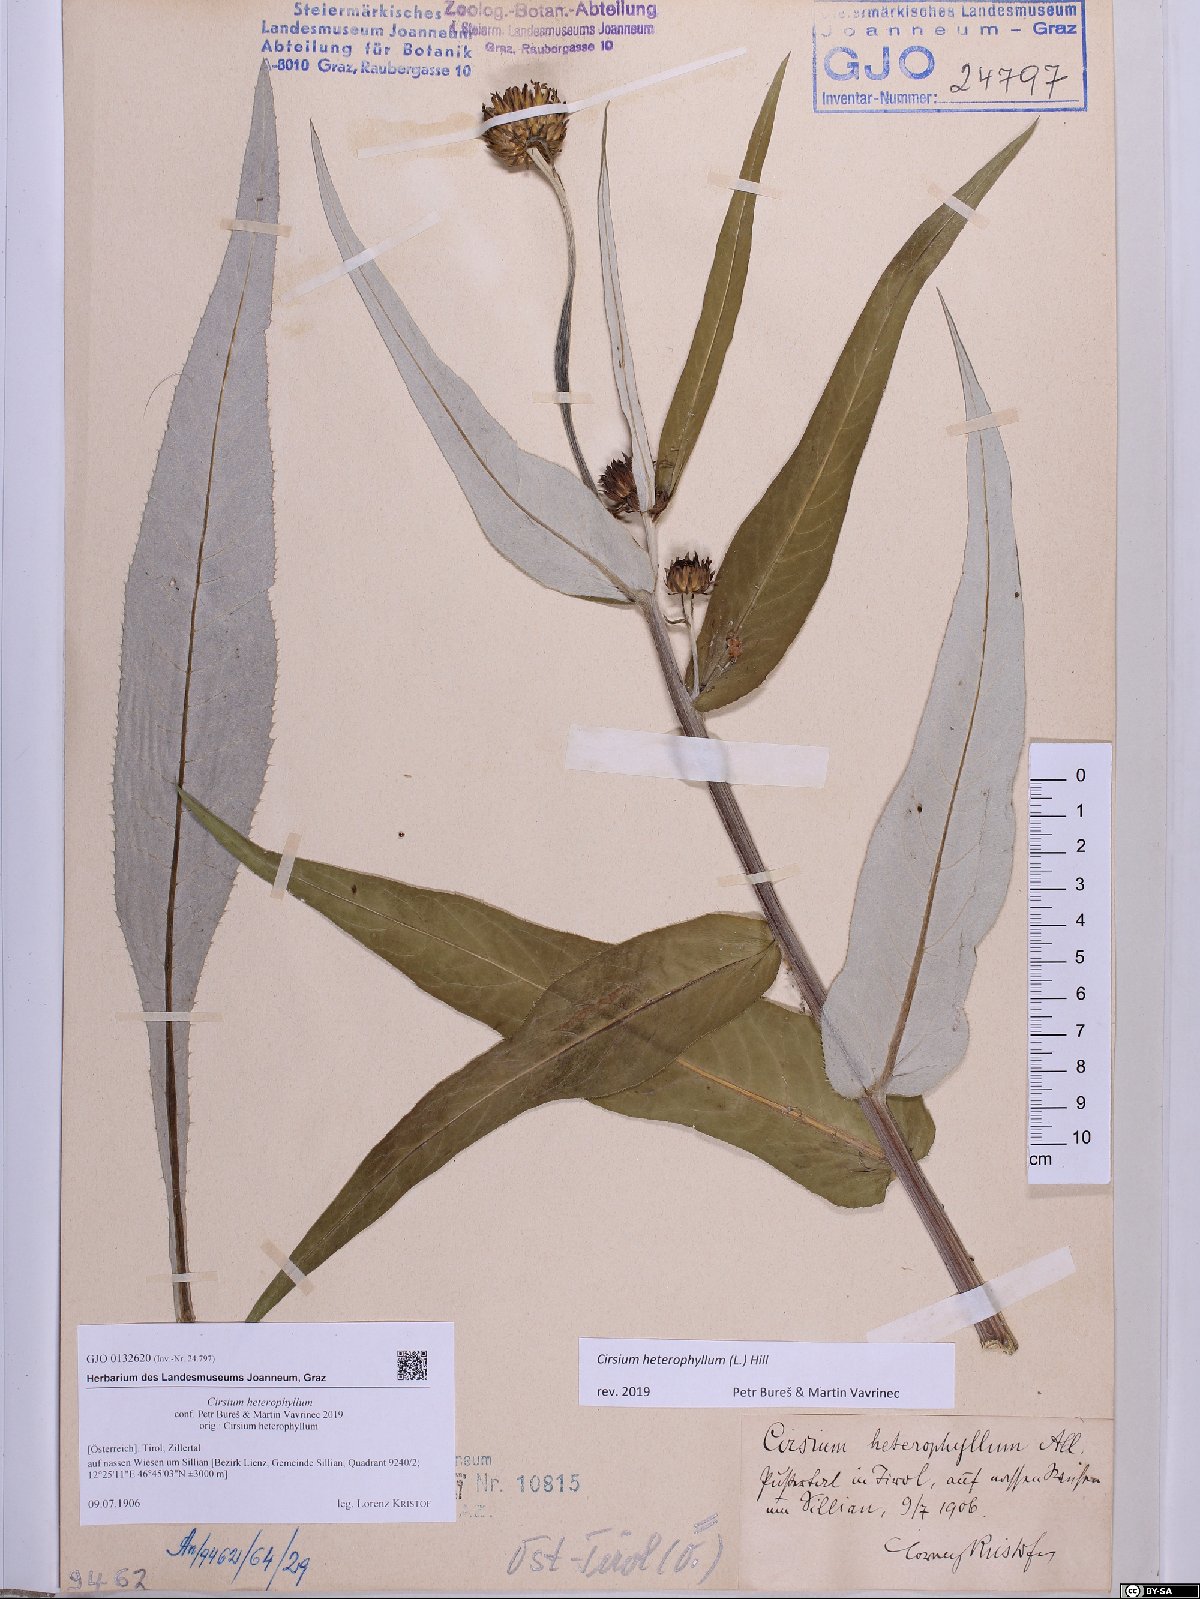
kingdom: Plantae
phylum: Tracheophyta
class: Magnoliopsida
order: Asterales
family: Asteraceae
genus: Cirsium
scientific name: Cirsium heterophyllum
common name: Melancholy thistle
